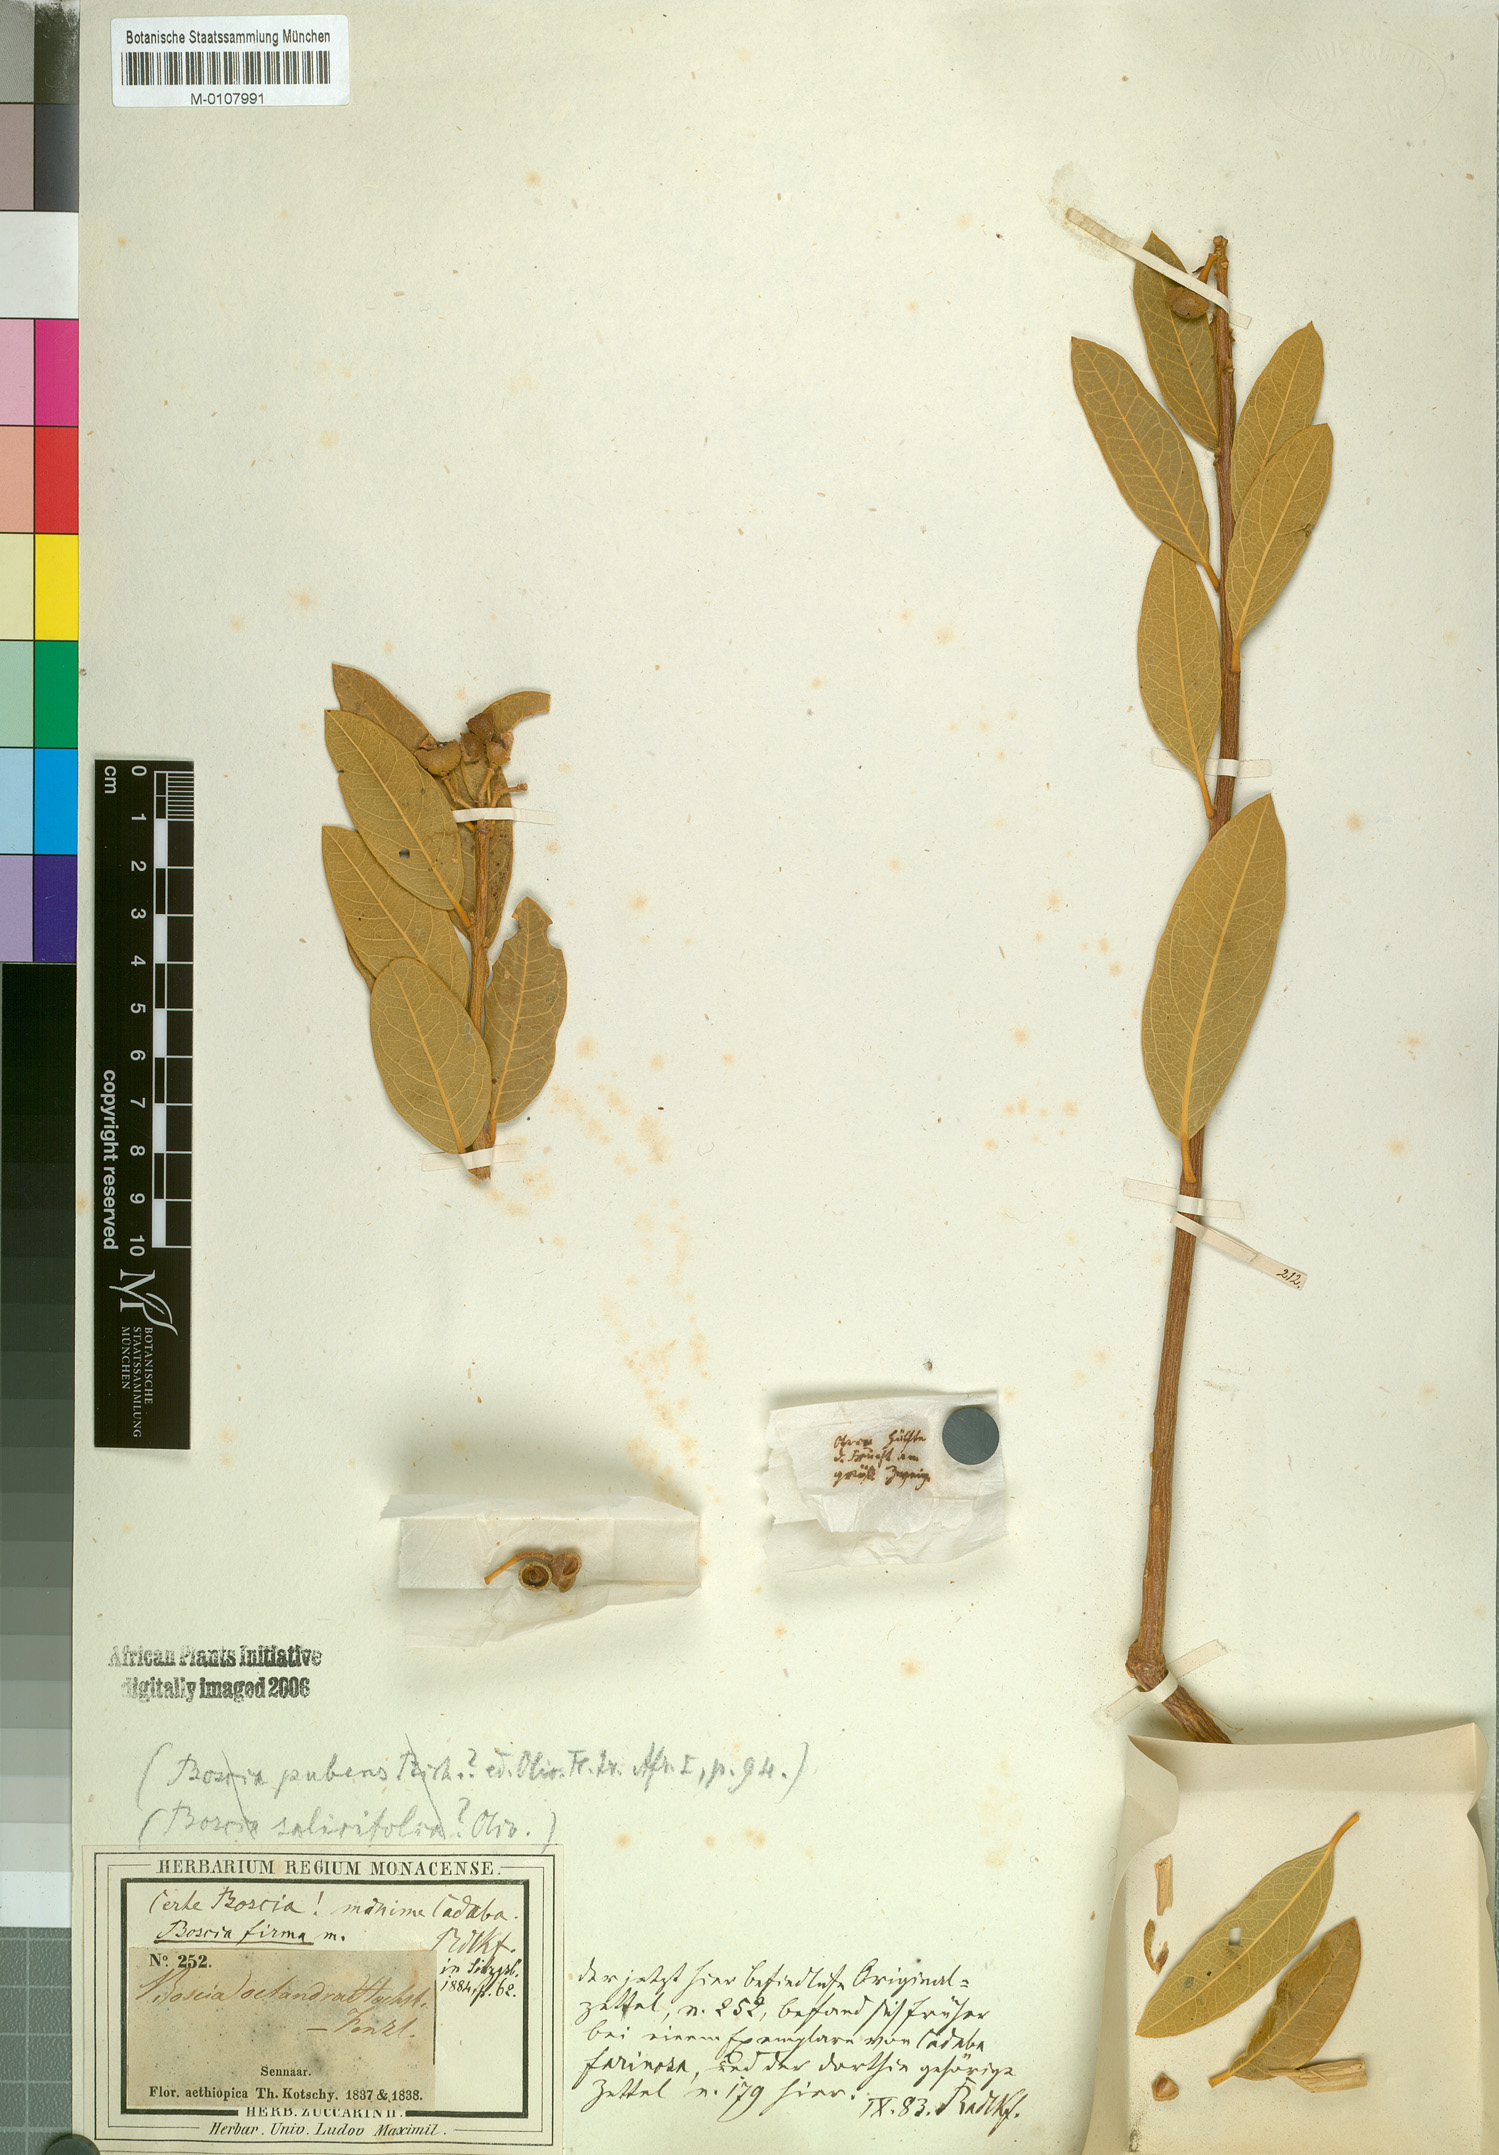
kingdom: Plantae
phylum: Tracheophyta
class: Magnoliopsida
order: Brassicales
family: Capparaceae
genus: Boscia
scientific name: Boscia senegalensis
